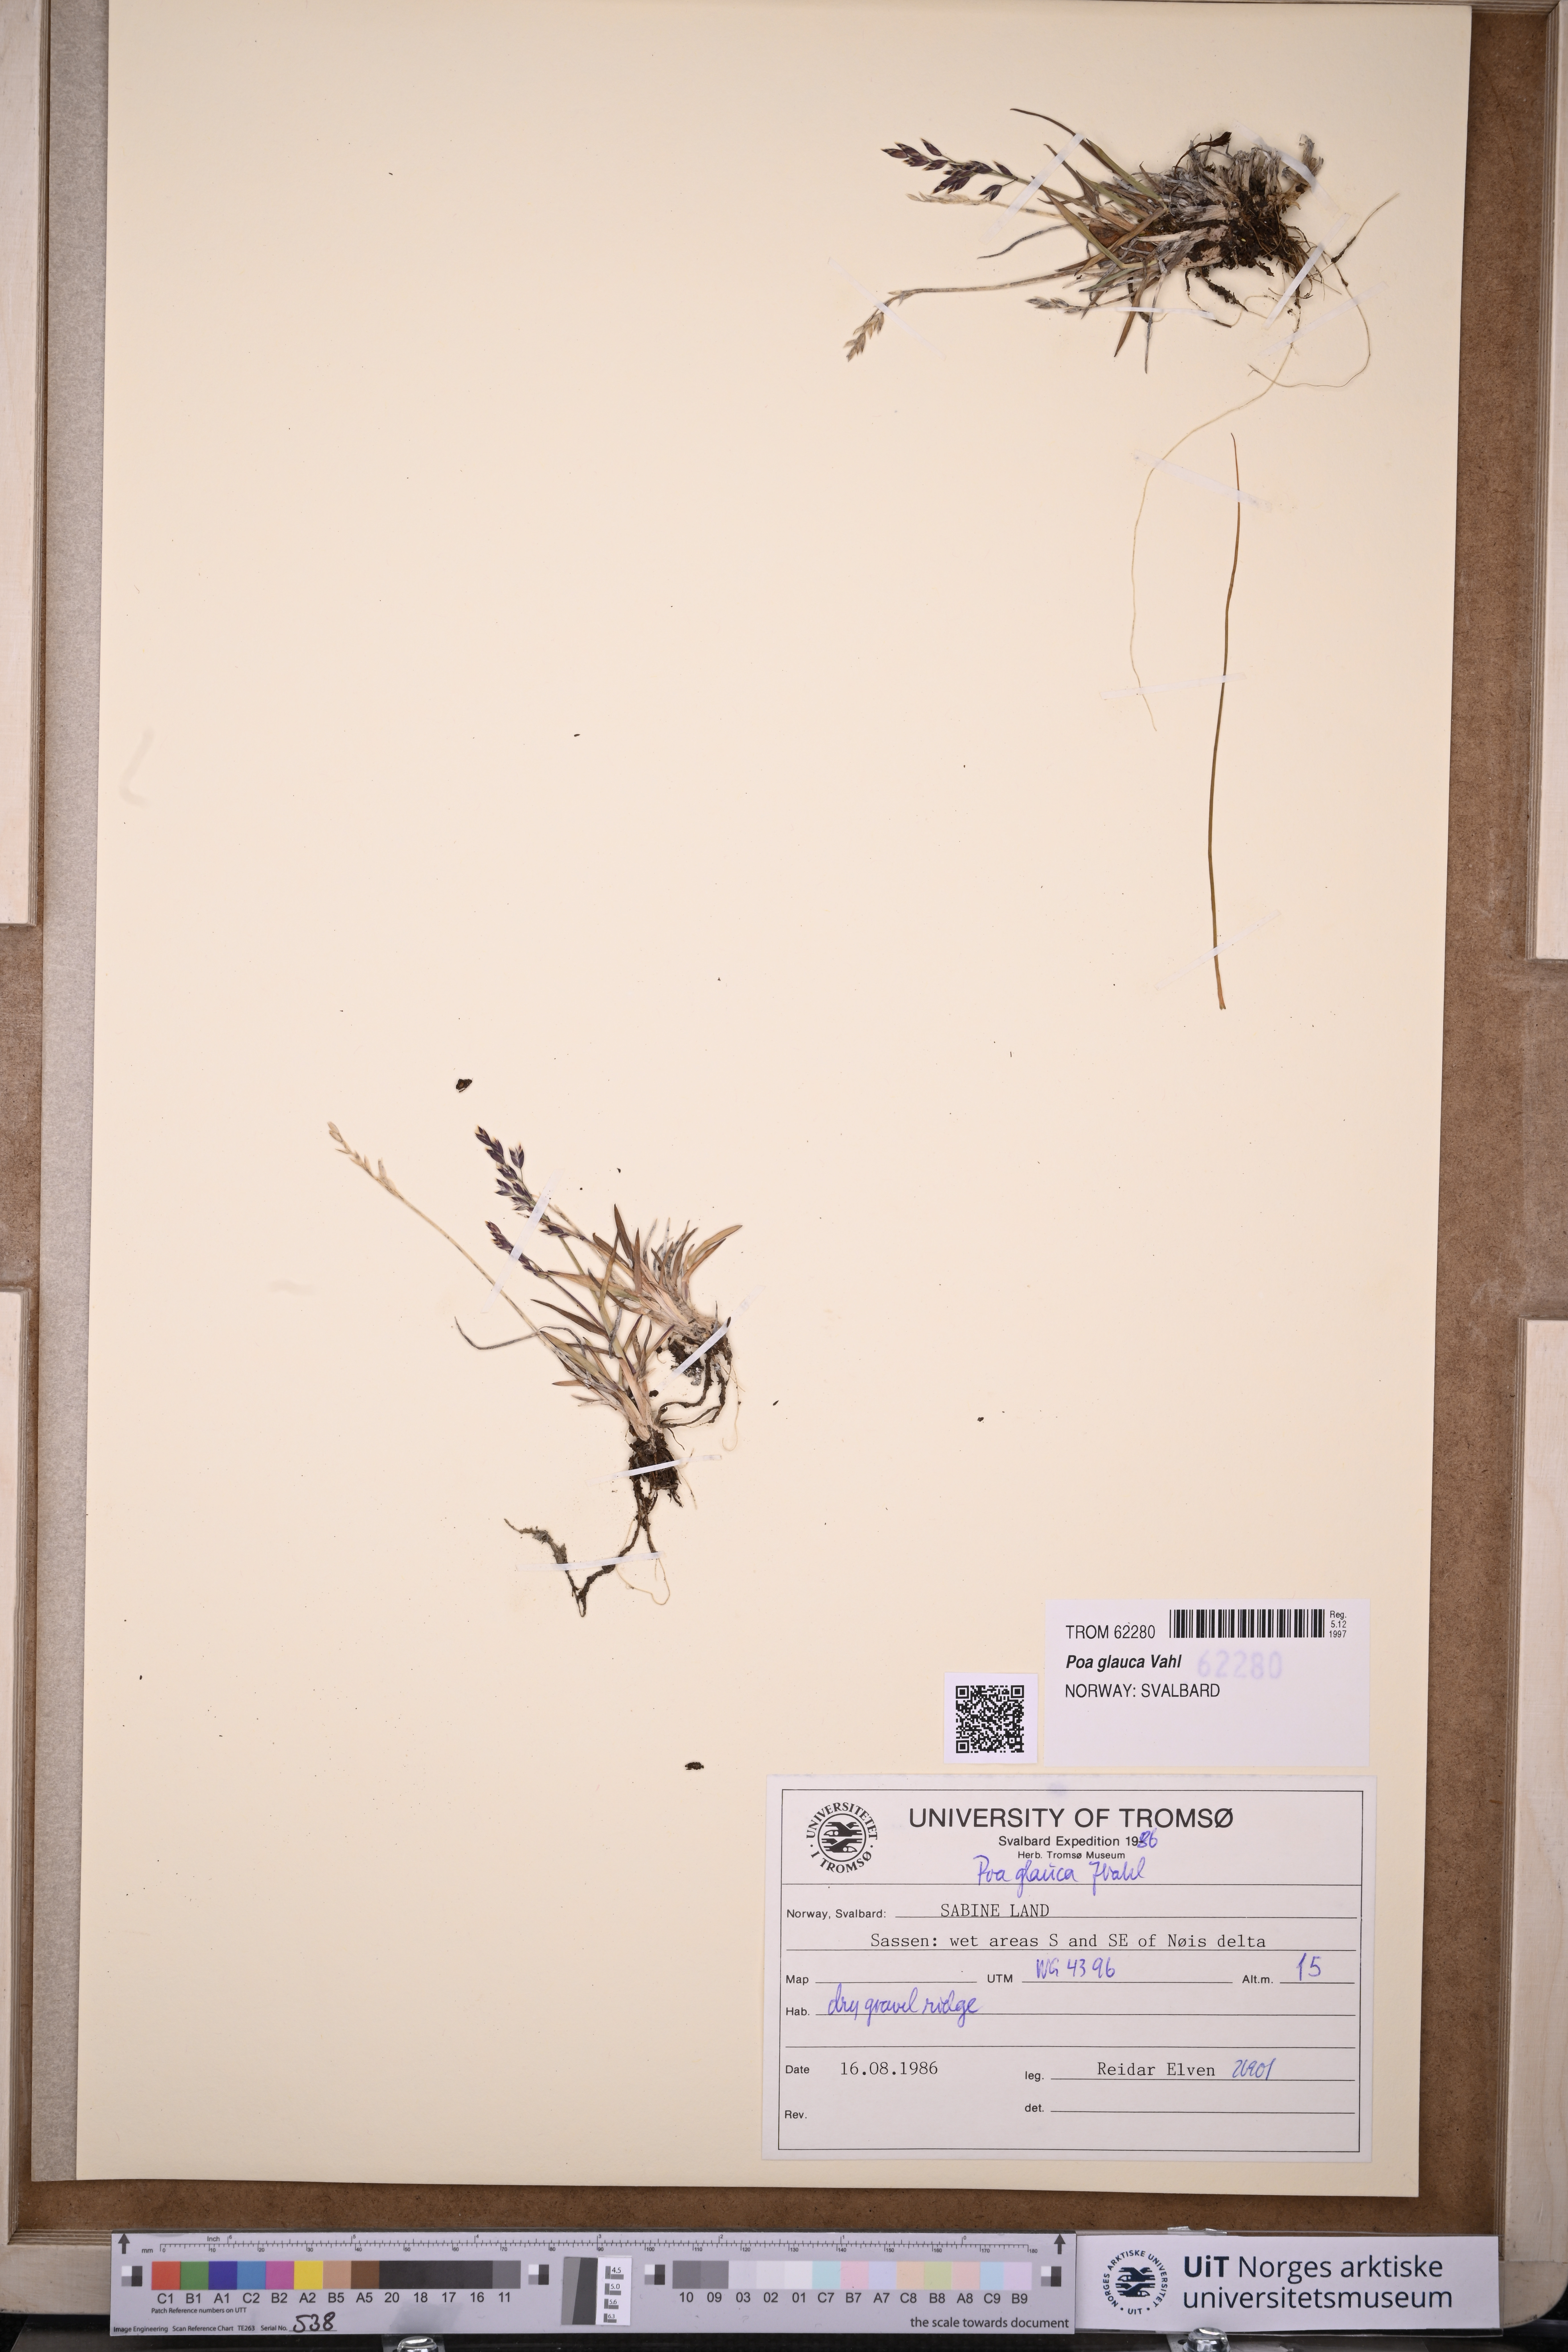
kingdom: Plantae
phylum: Tracheophyta
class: Liliopsida
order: Poales
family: Poaceae
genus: Poa
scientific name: Poa glauca
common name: Glaucous bluegrass
